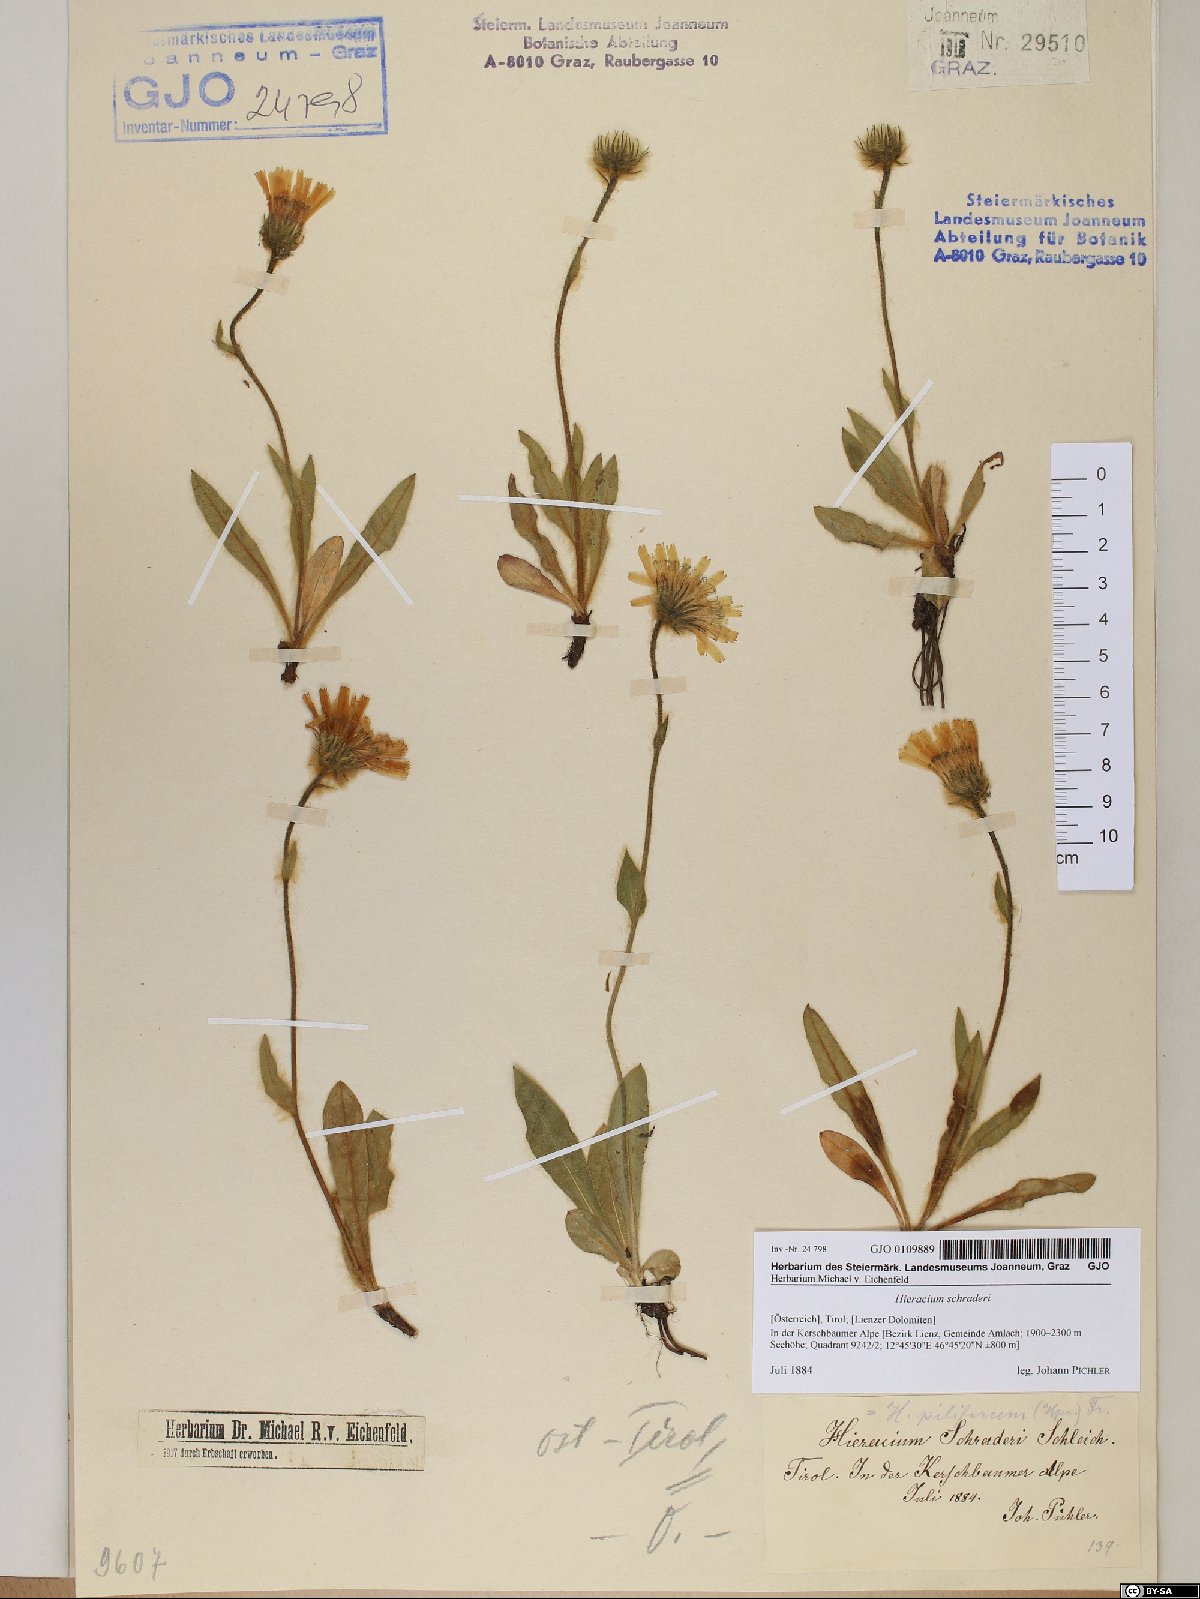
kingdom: Plantae
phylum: Tracheophyta
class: Magnoliopsida
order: Asterales
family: Asteraceae
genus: Hieracium
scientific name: Hieracium schraderi
